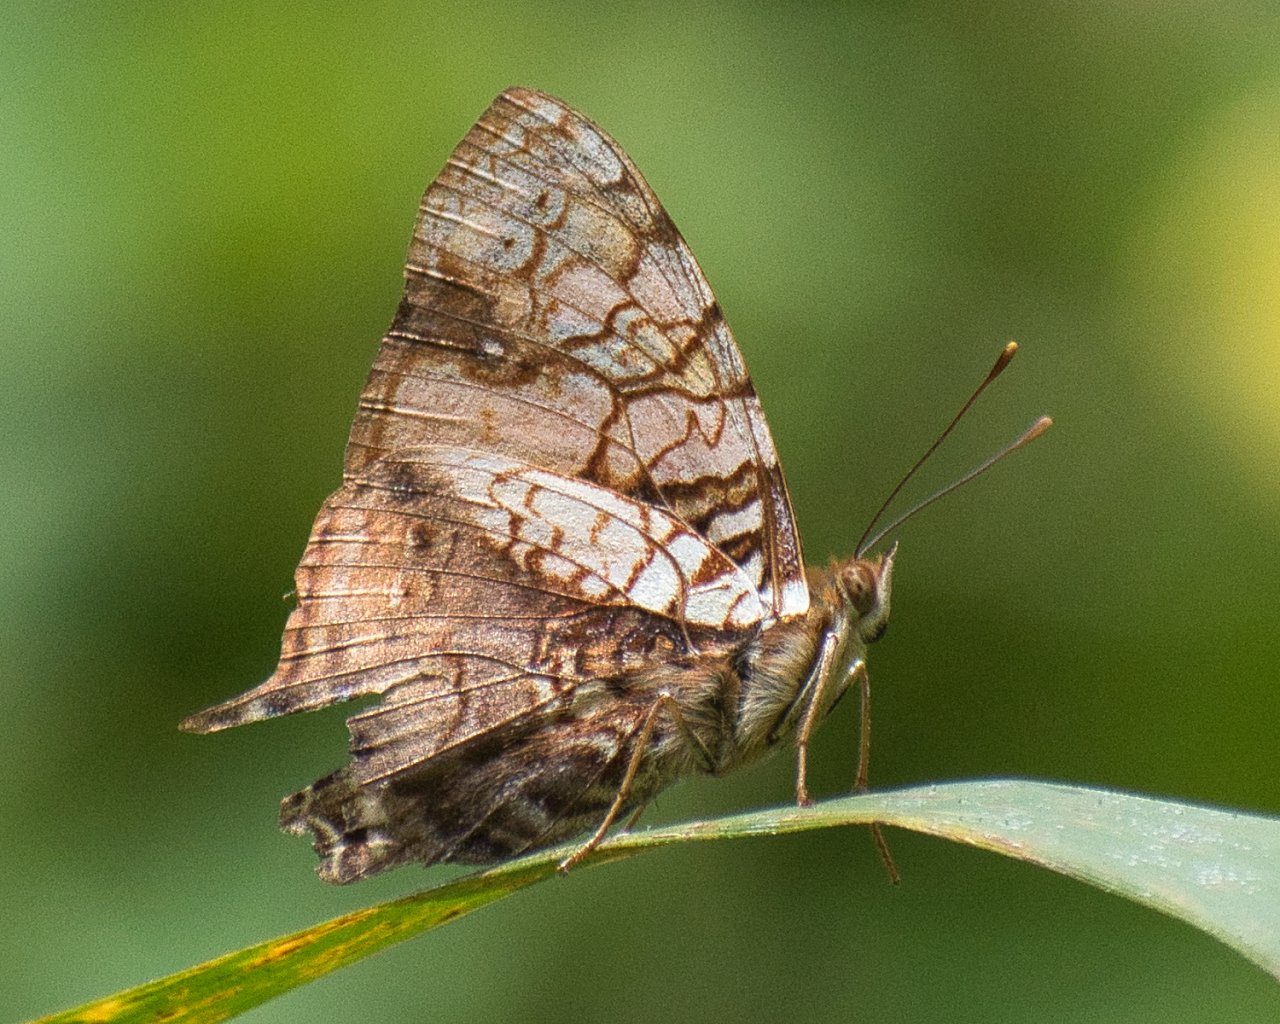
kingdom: Animalia
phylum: Arthropoda
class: Insecta
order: Lepidoptera
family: Nymphalidae
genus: Hypanartia
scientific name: Hypanartia lethe
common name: Orange Mapwing
